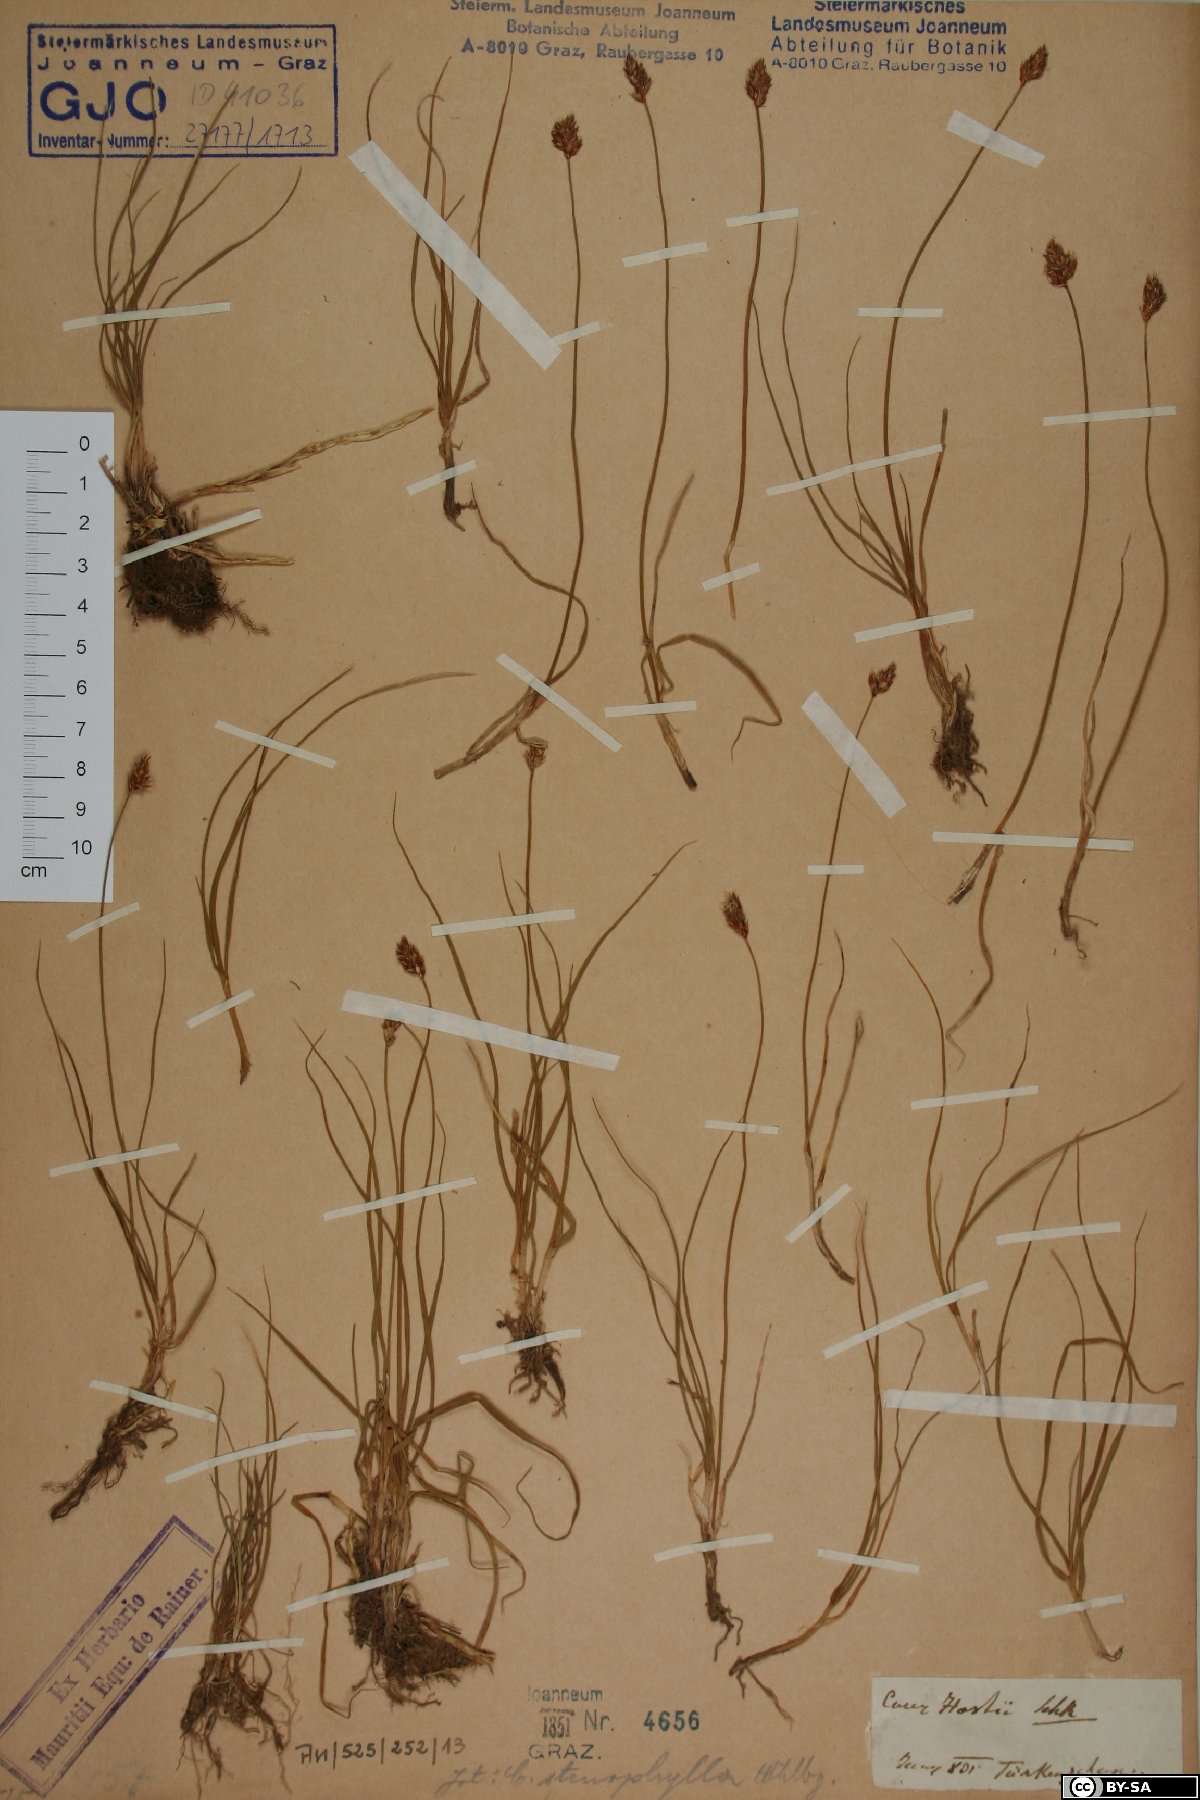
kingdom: Plantae
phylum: Tracheophyta
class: Liliopsida
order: Poales
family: Cyperaceae
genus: Carex
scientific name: Carex stenophylla
